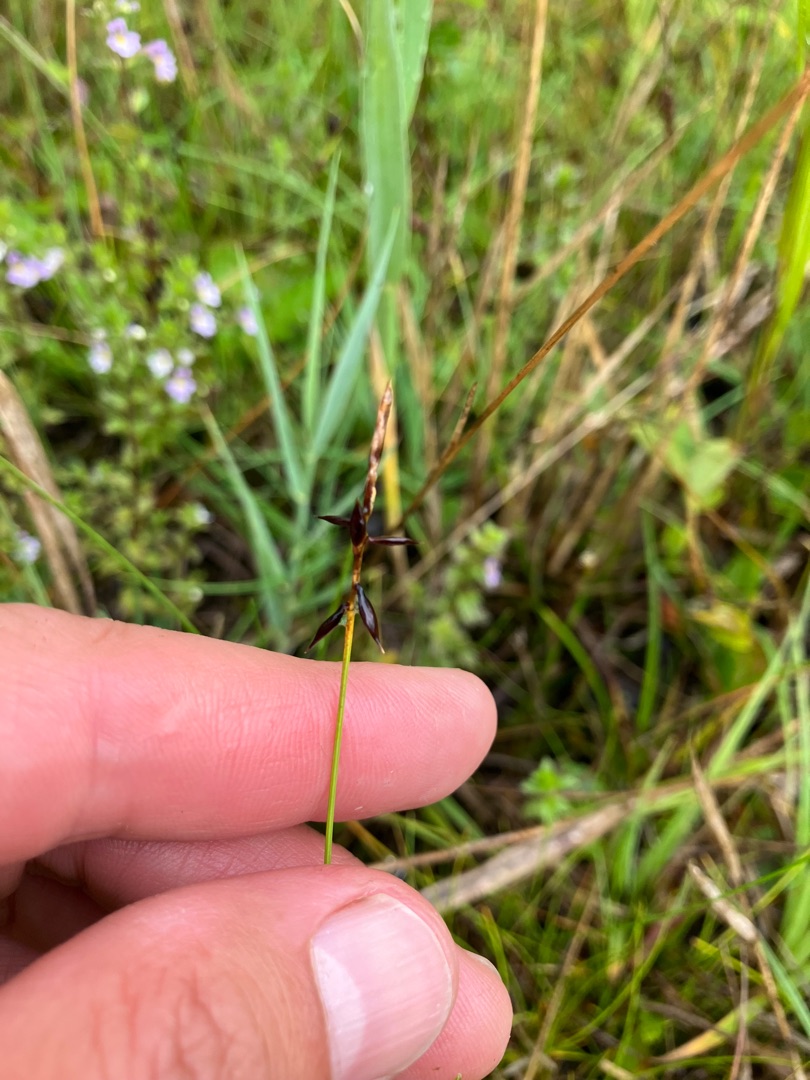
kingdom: Plantae
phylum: Tracheophyta
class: Liliopsida
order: Poales
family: Cyperaceae
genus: Carex
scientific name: Carex pulicaris
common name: Loppe-star
